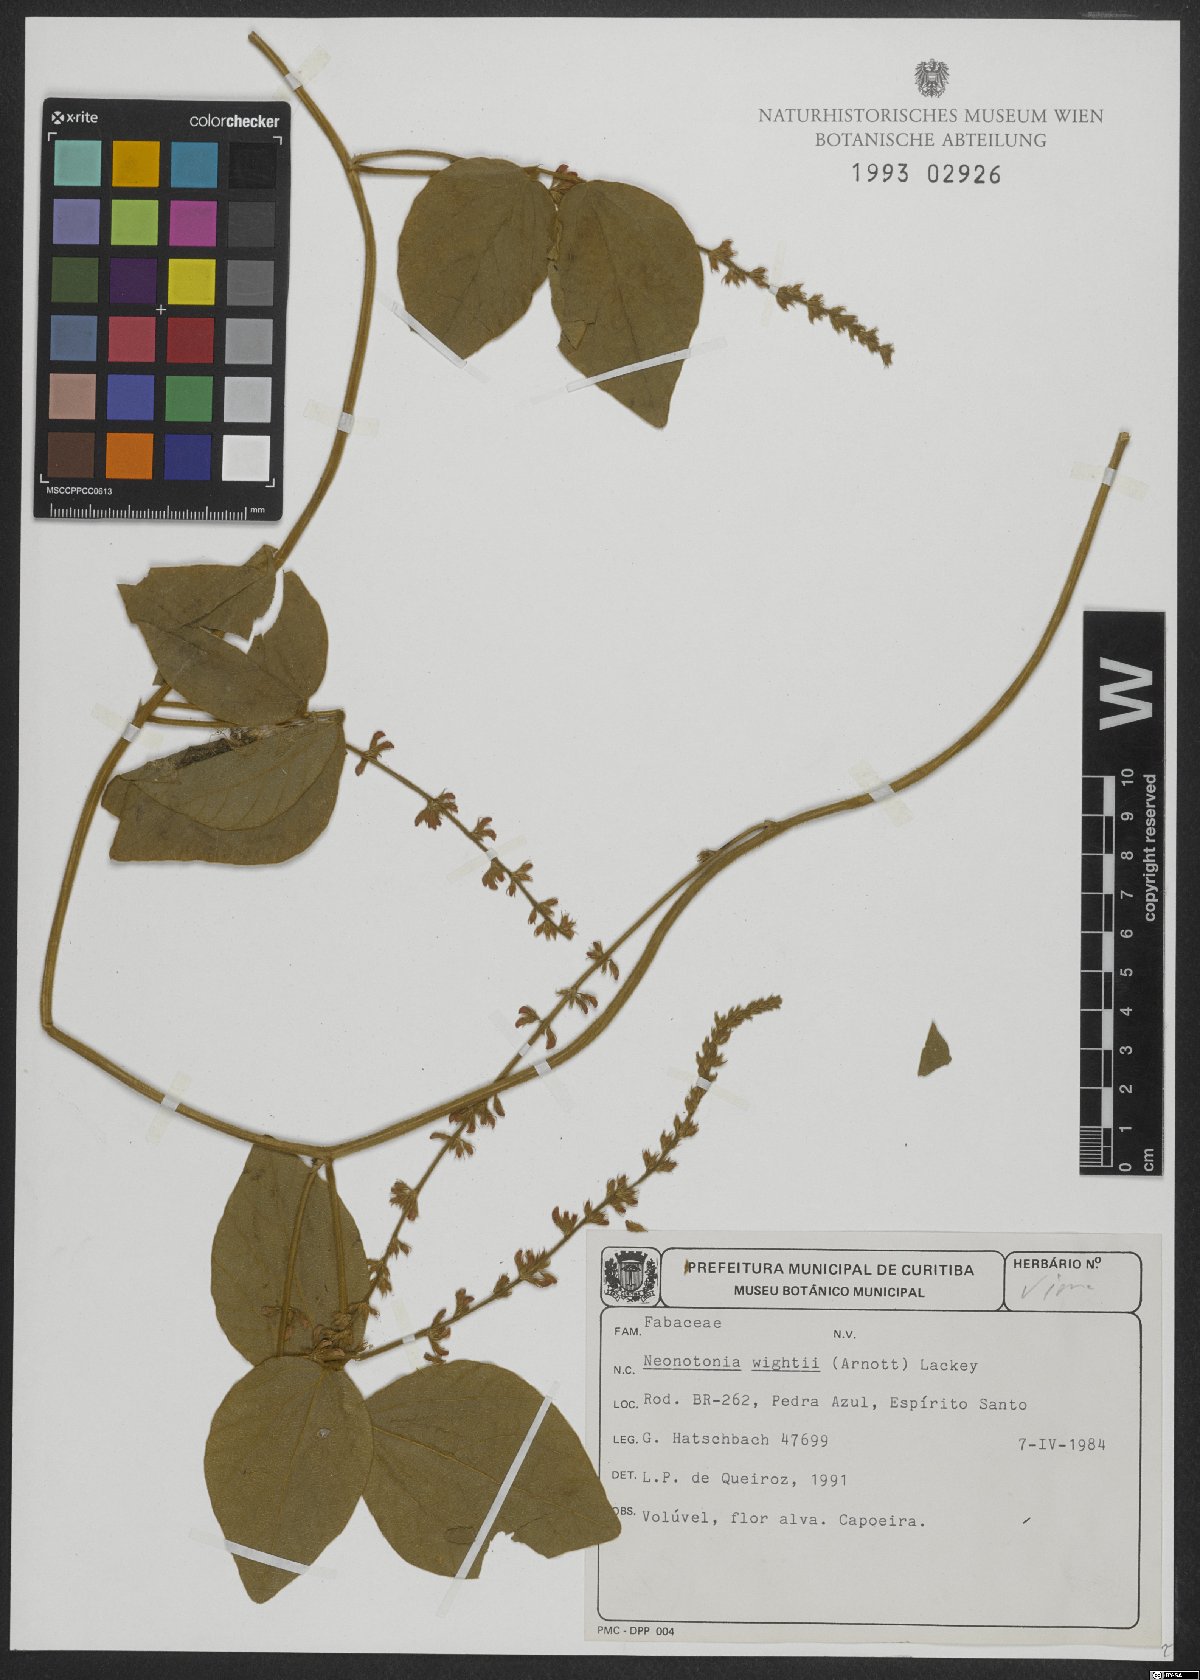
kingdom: Plantae
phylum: Tracheophyta
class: Magnoliopsida
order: Fabales
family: Fabaceae
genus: Neonotonia
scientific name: Neonotonia wightii
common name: Perennial soybean
